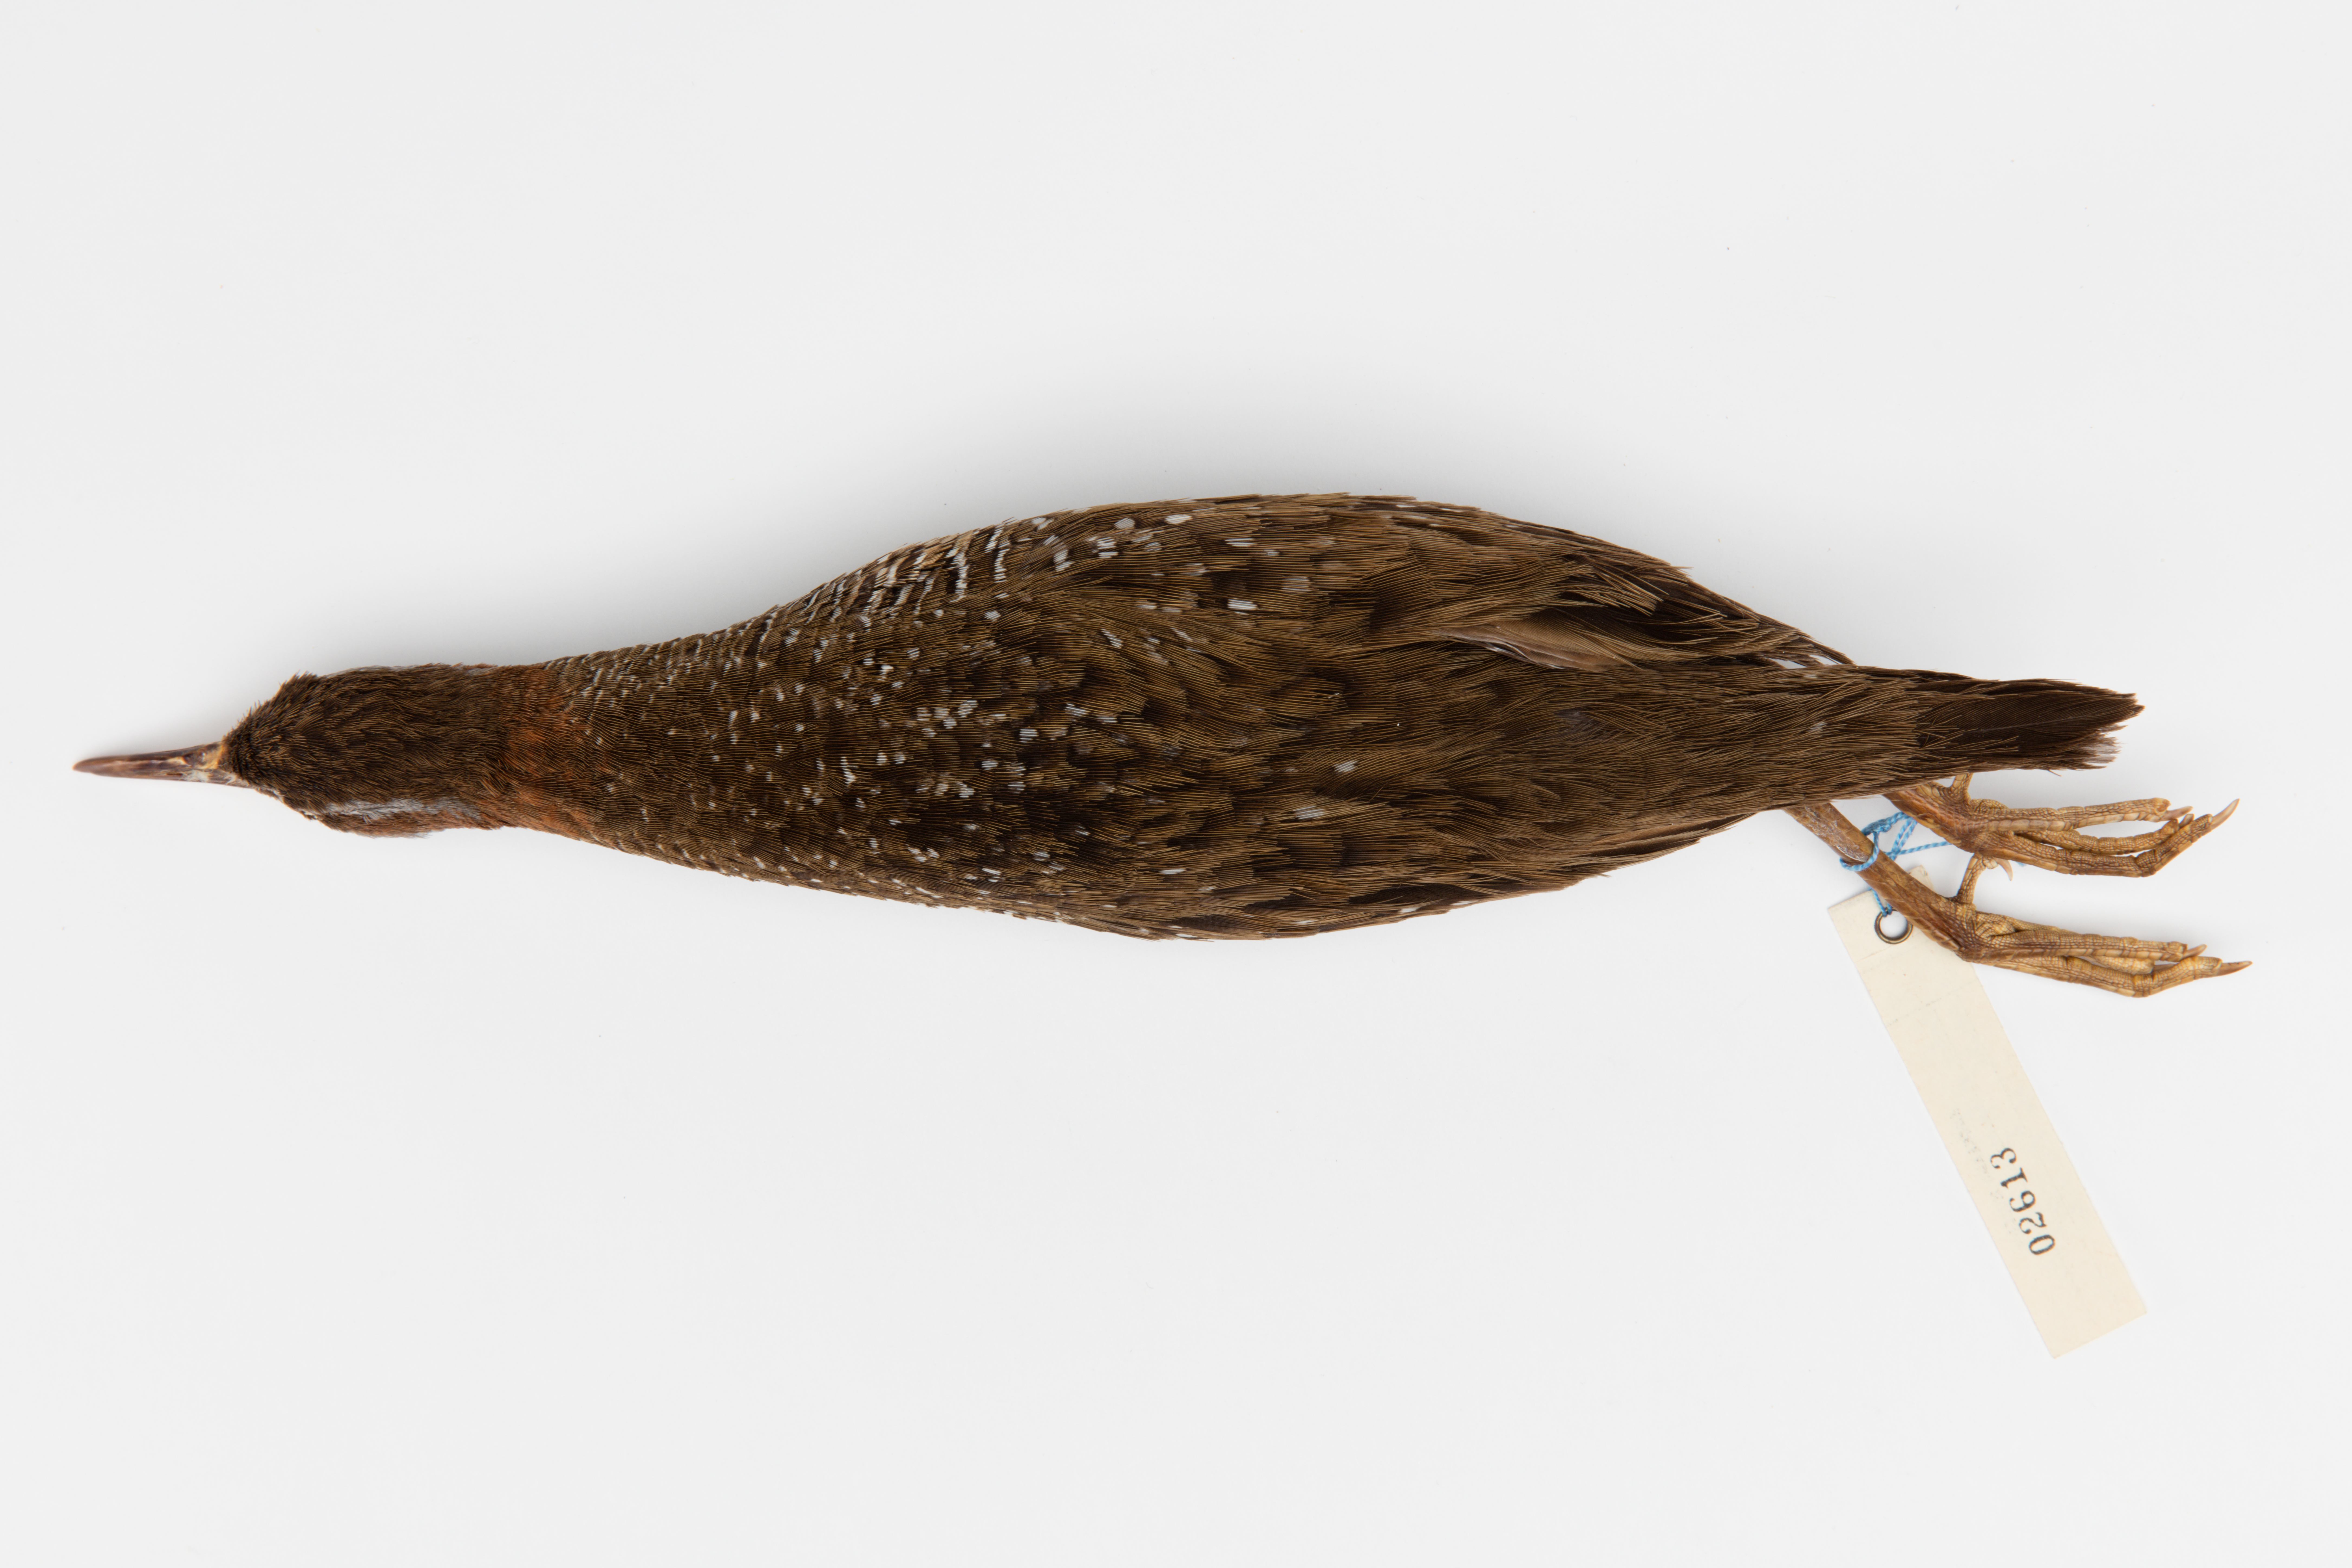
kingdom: Animalia
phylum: Chordata
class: Aves
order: Gruiformes
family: Rallidae
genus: Gallirallus
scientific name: Gallirallus philippensis
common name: Buff-banded rail
